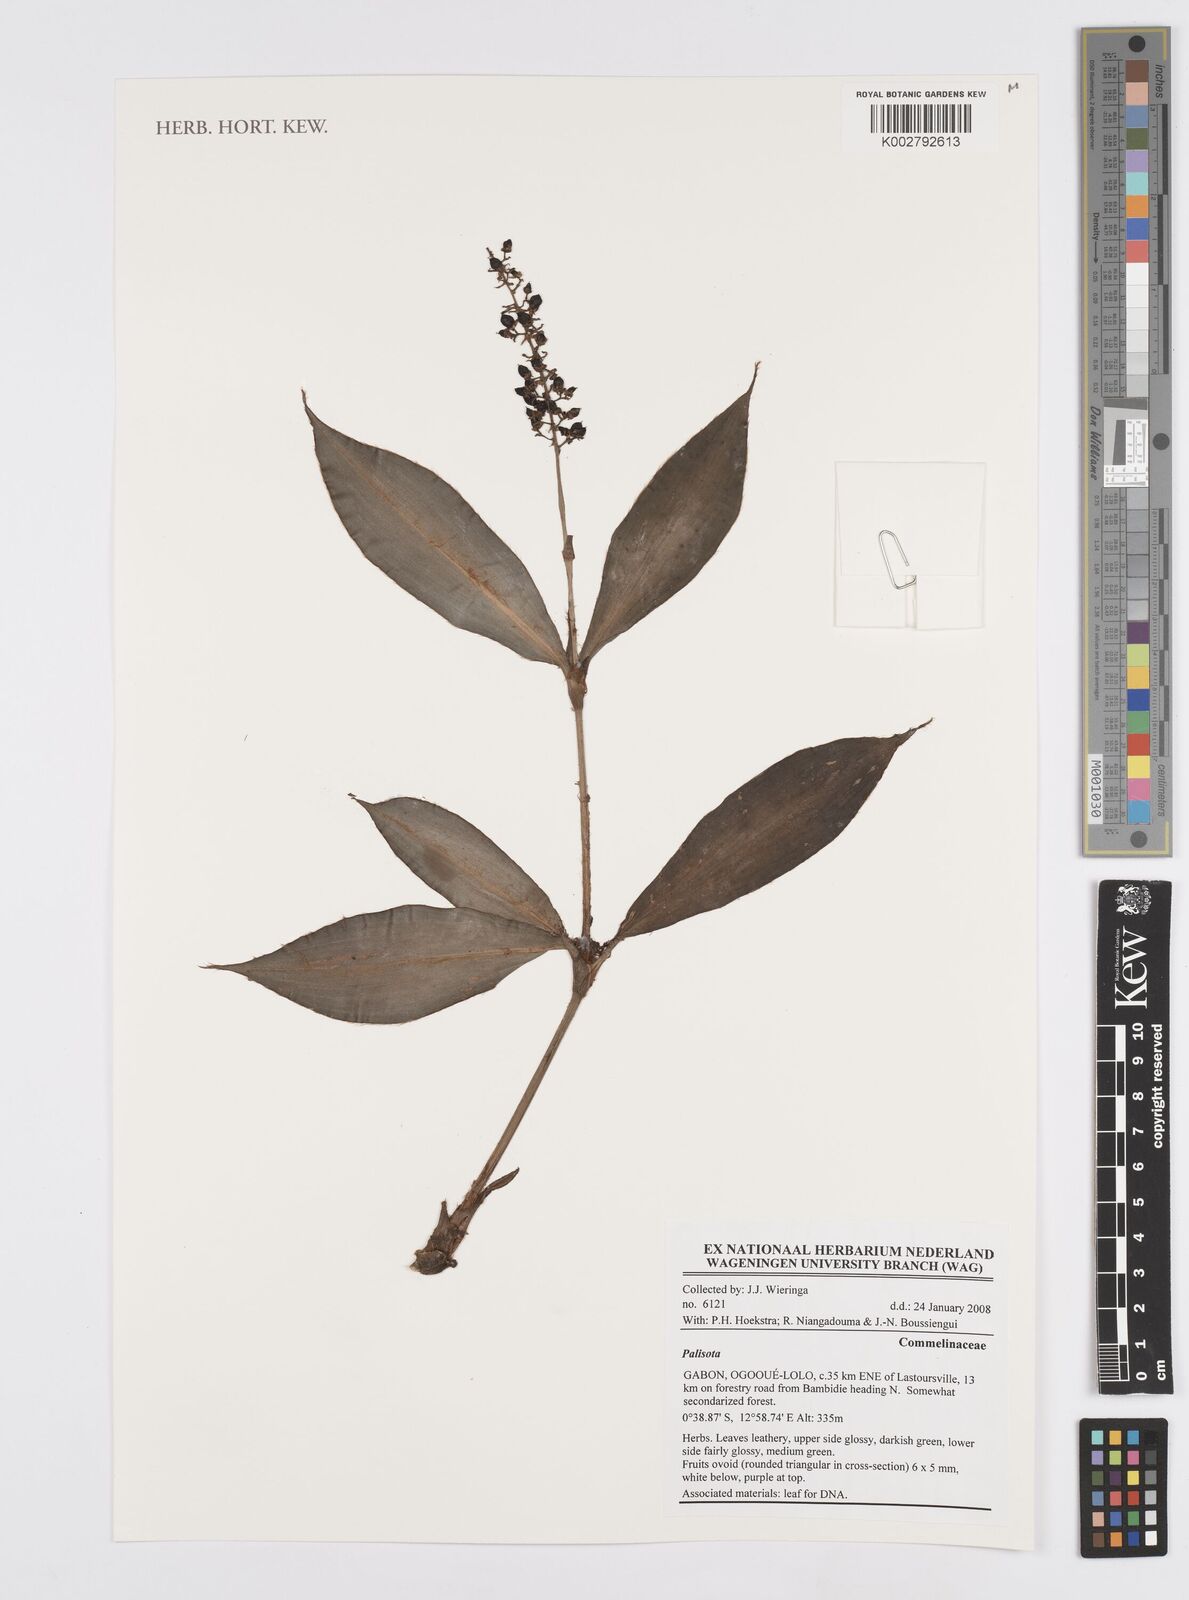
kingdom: Plantae
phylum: Tracheophyta
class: Liliopsida
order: Commelinales
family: Commelinaceae
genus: Palisota
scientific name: Palisota
